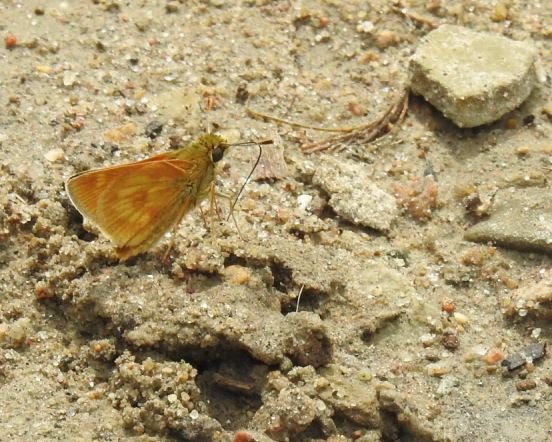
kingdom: Animalia
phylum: Arthropoda
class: Insecta
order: Lepidoptera
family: Hesperiidae
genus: Polites
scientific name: Polites
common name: Long Dash Skipper
